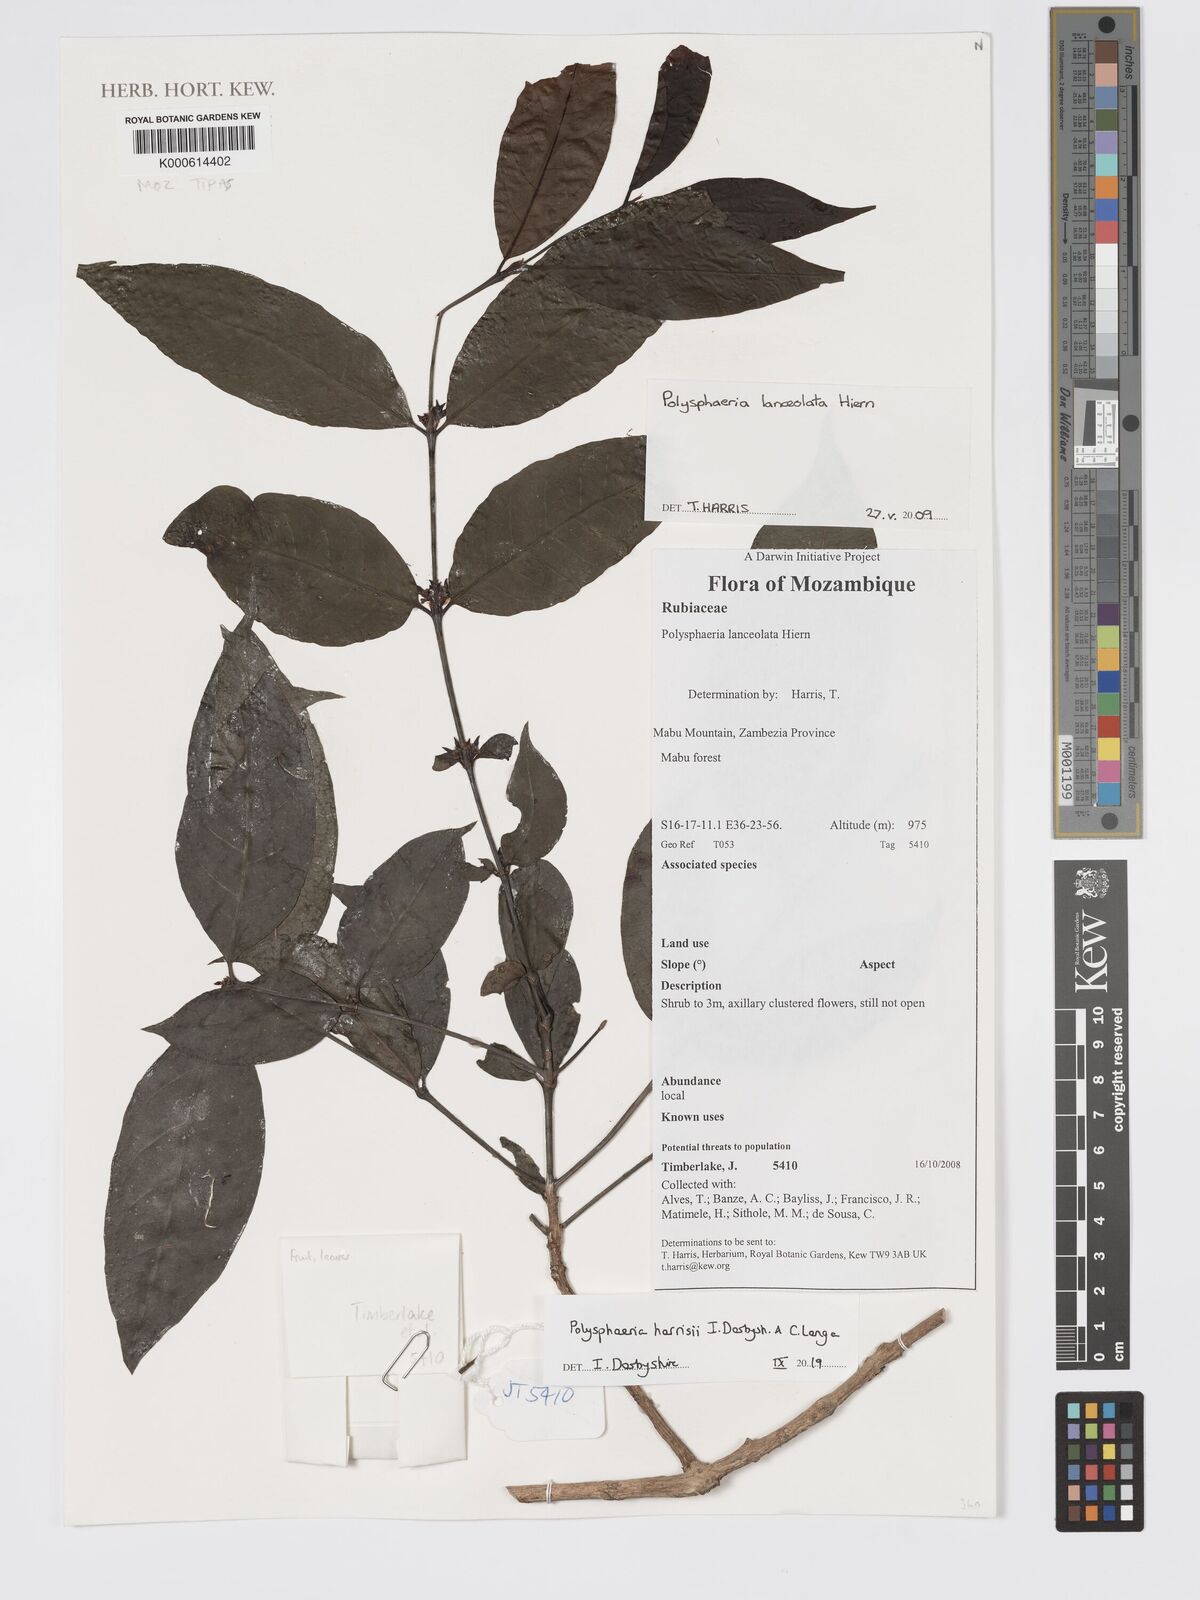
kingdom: Plantae
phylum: Tracheophyta
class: Magnoliopsida
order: Gentianales
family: Rubiaceae
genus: Polysphaeria
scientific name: Polysphaeria lanceolata
